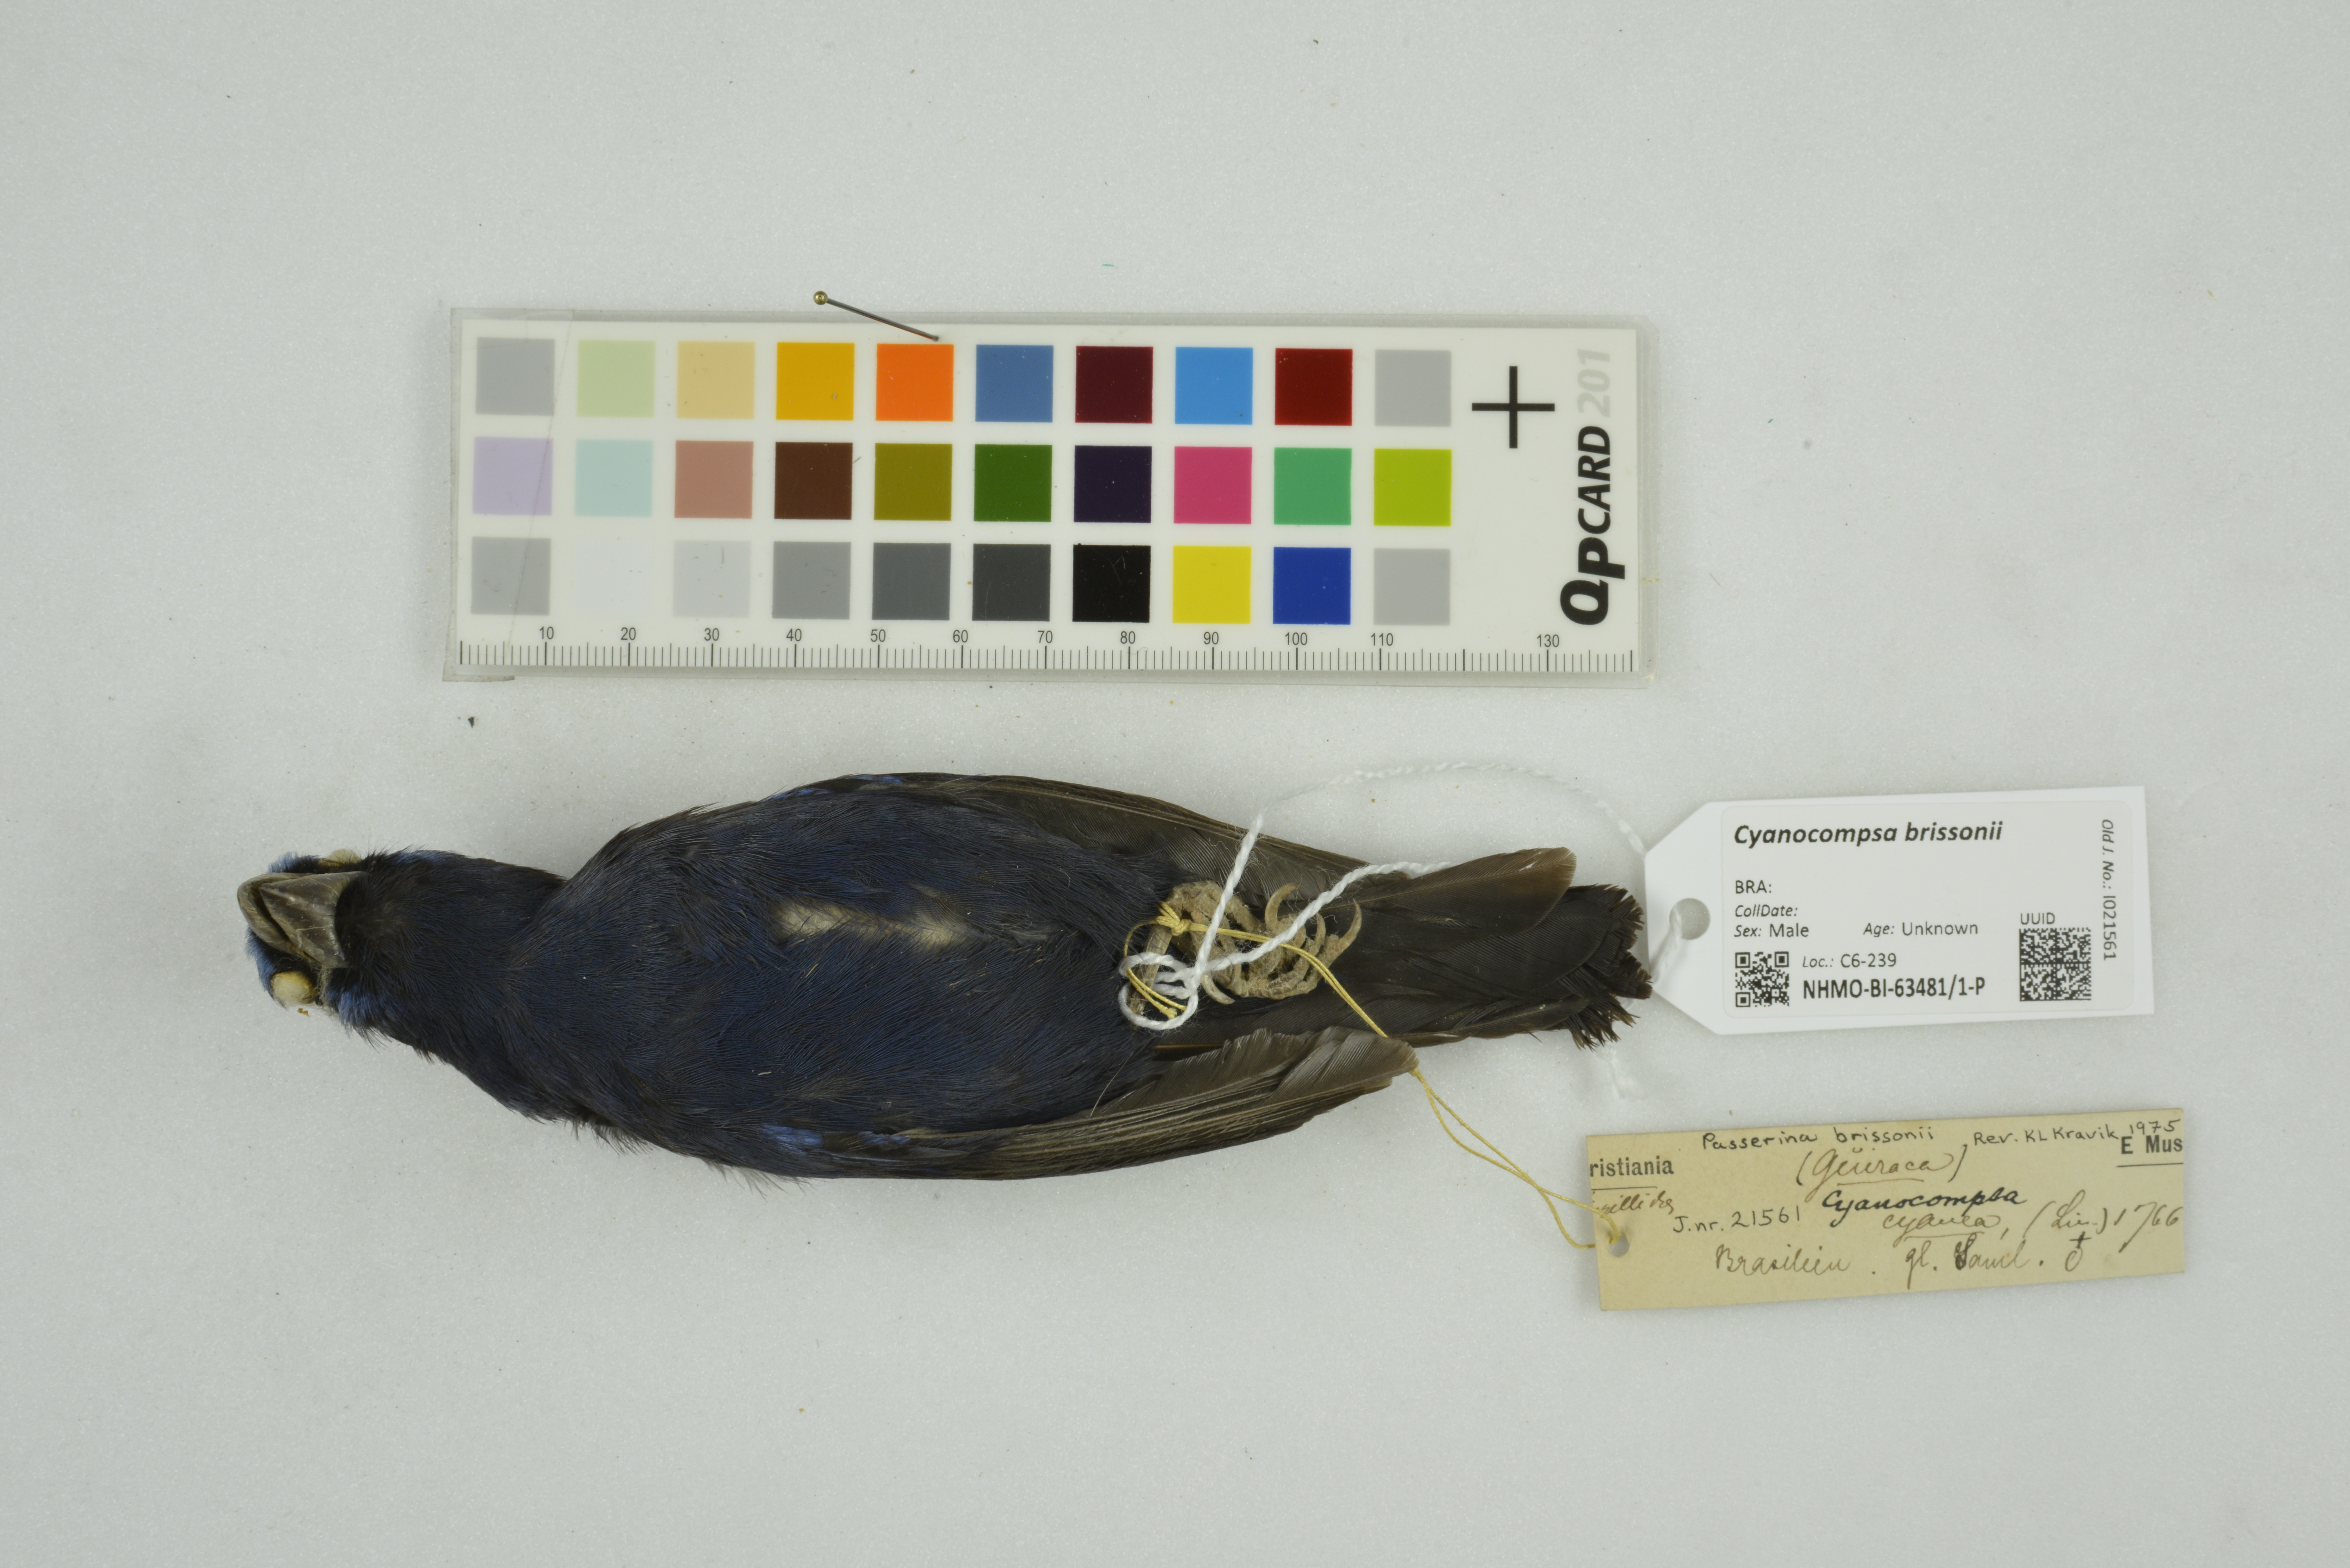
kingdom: Animalia
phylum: Chordata
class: Aves
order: Passeriformes
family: Cardinalidae
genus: Cyanoloxia
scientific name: Cyanoloxia brissonii
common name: Ultramarine grosbeak
